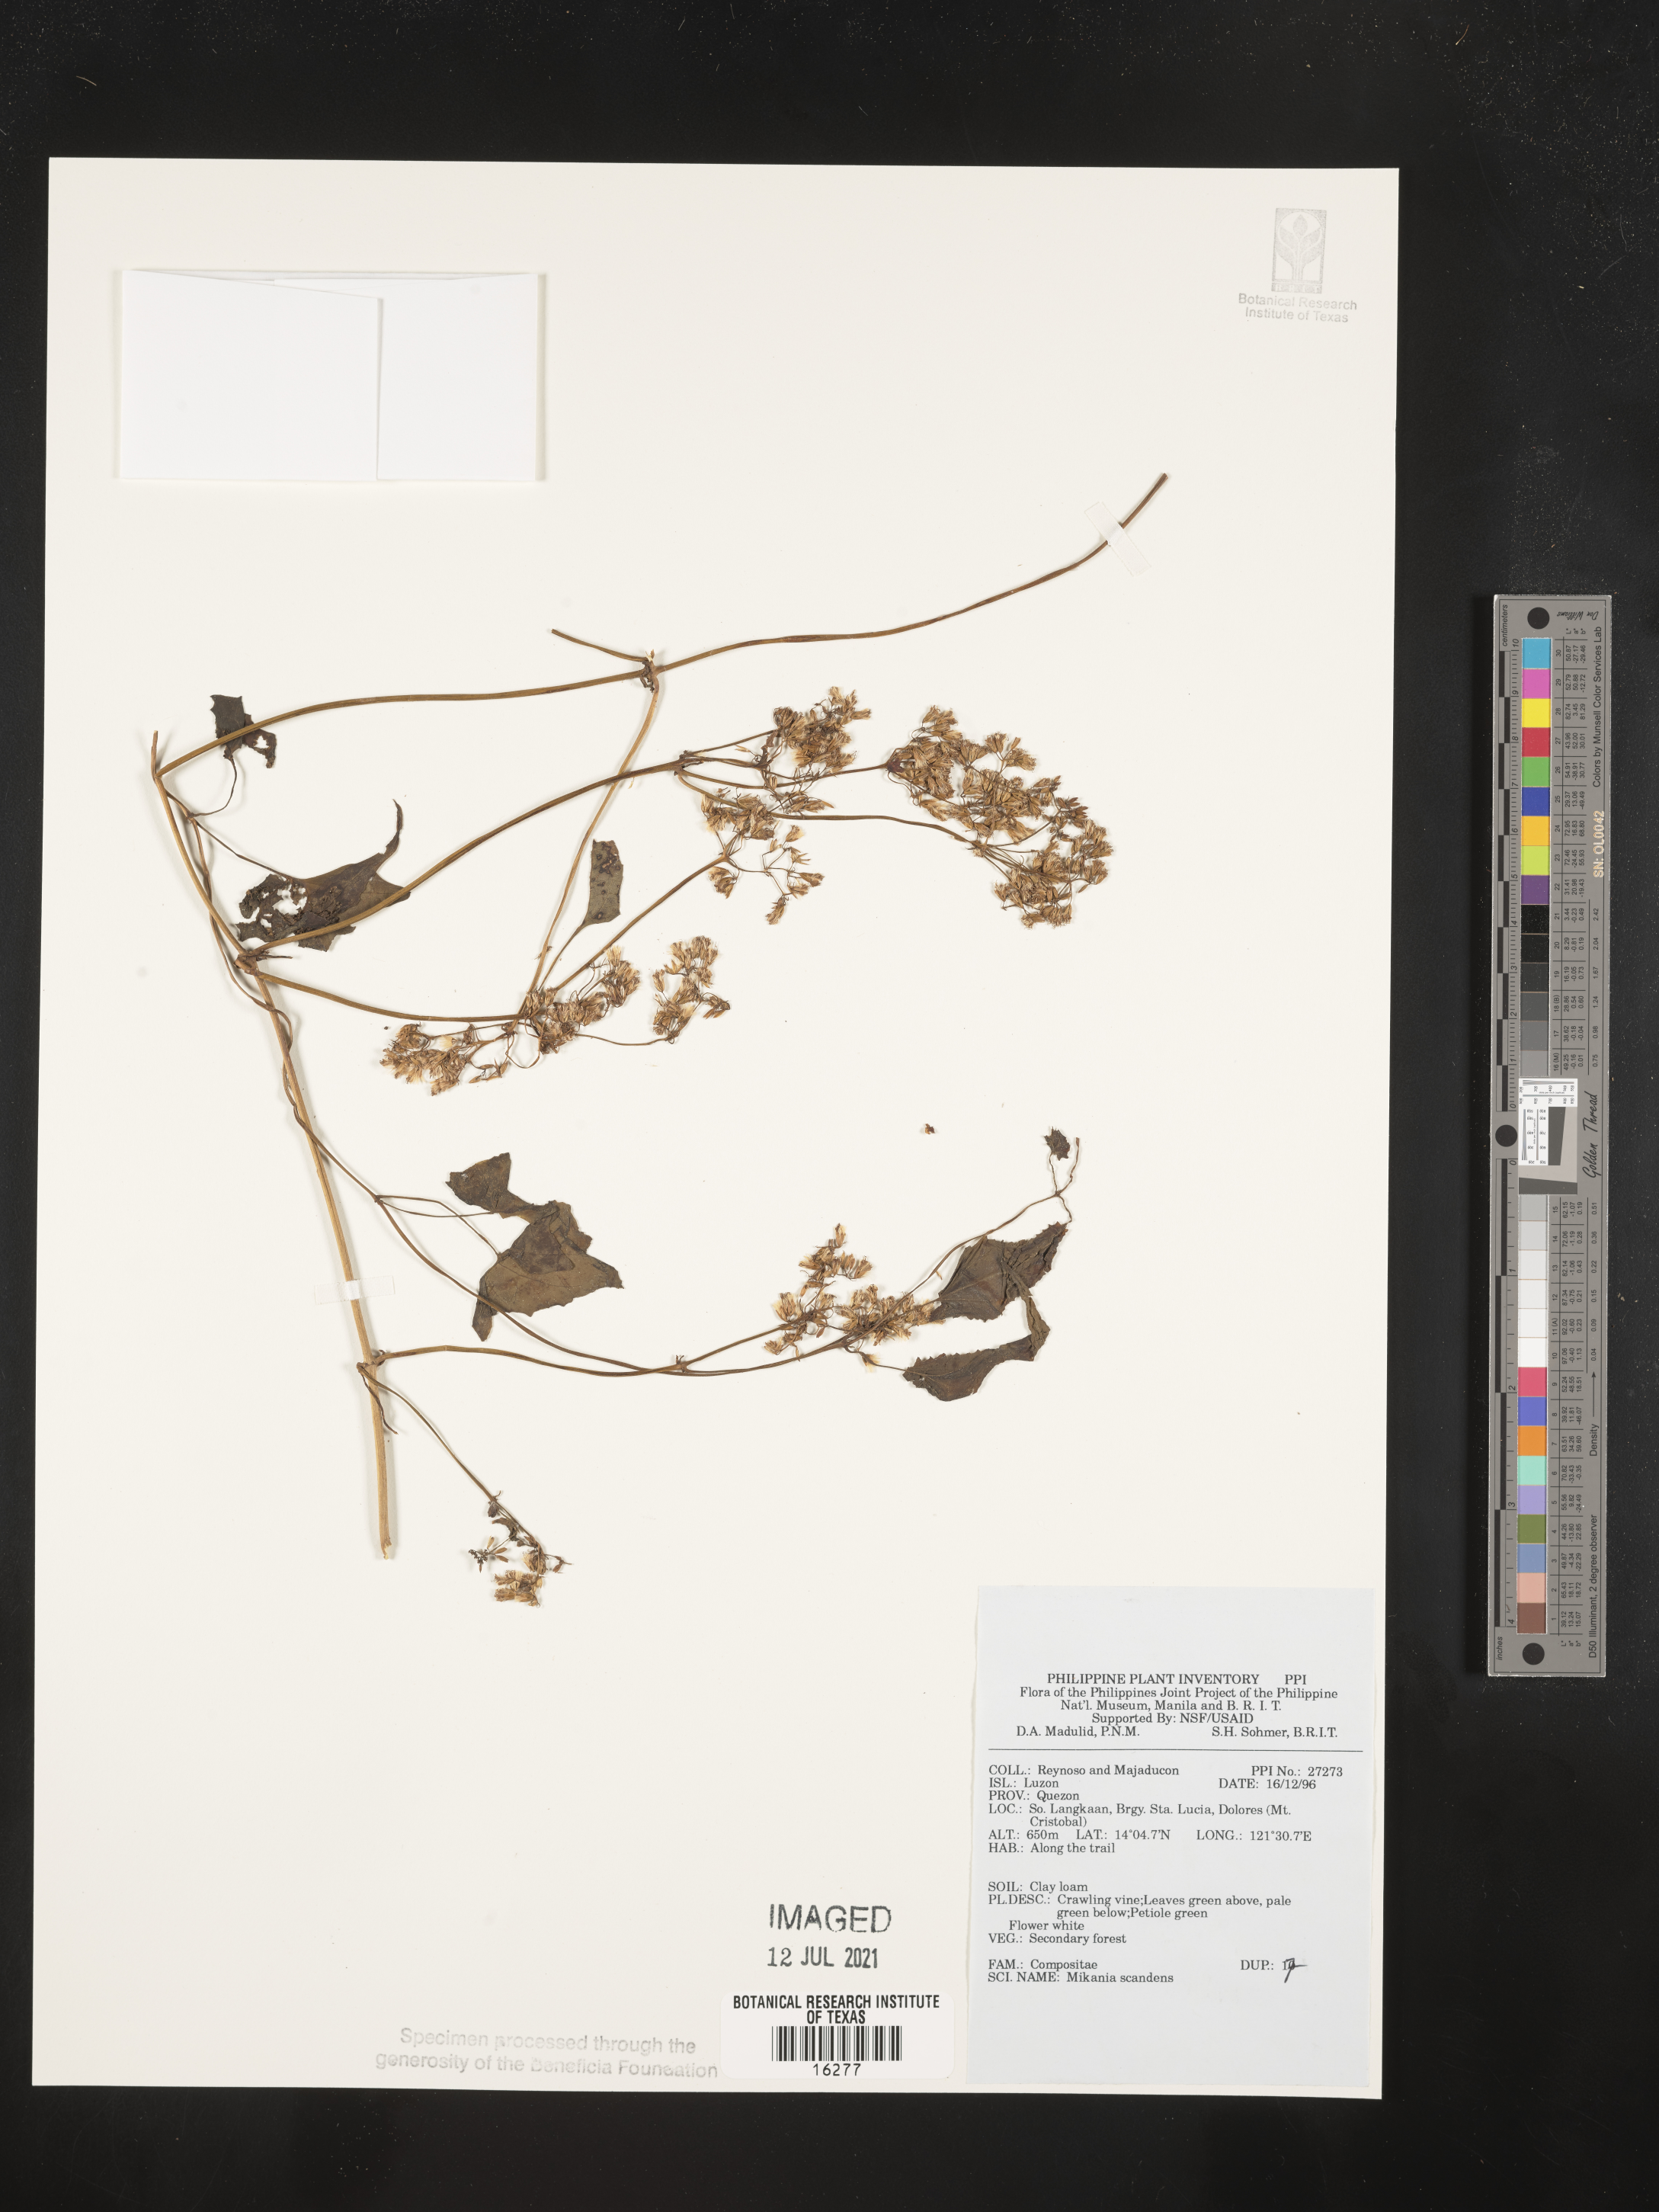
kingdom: Plantae
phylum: Tracheophyta
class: Magnoliopsida
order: Asterales
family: Asteraceae
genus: Mikania
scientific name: Mikania scandens
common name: Climbing hempvine
